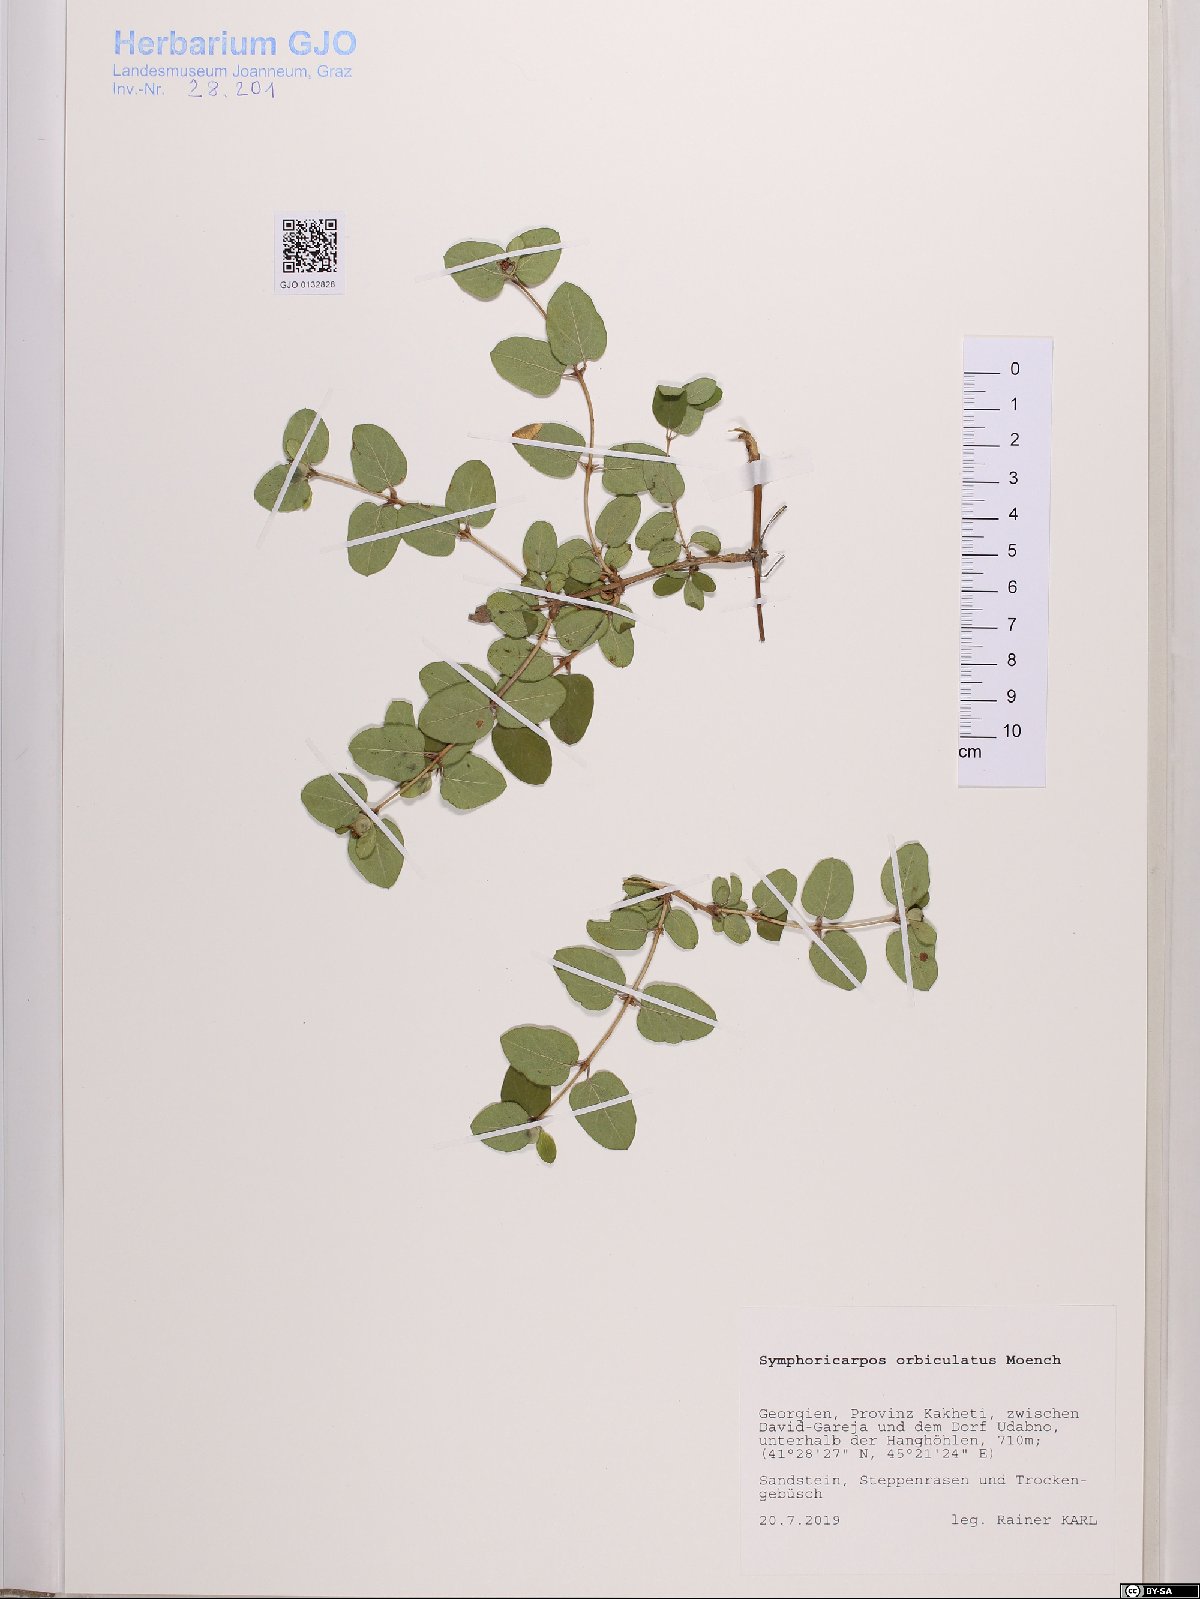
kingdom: Plantae
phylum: Tracheophyta
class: Magnoliopsida
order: Dipsacales
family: Caprifoliaceae
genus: Symphoricarpos
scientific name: Symphoricarpos orbiculatus
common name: Coralberry
